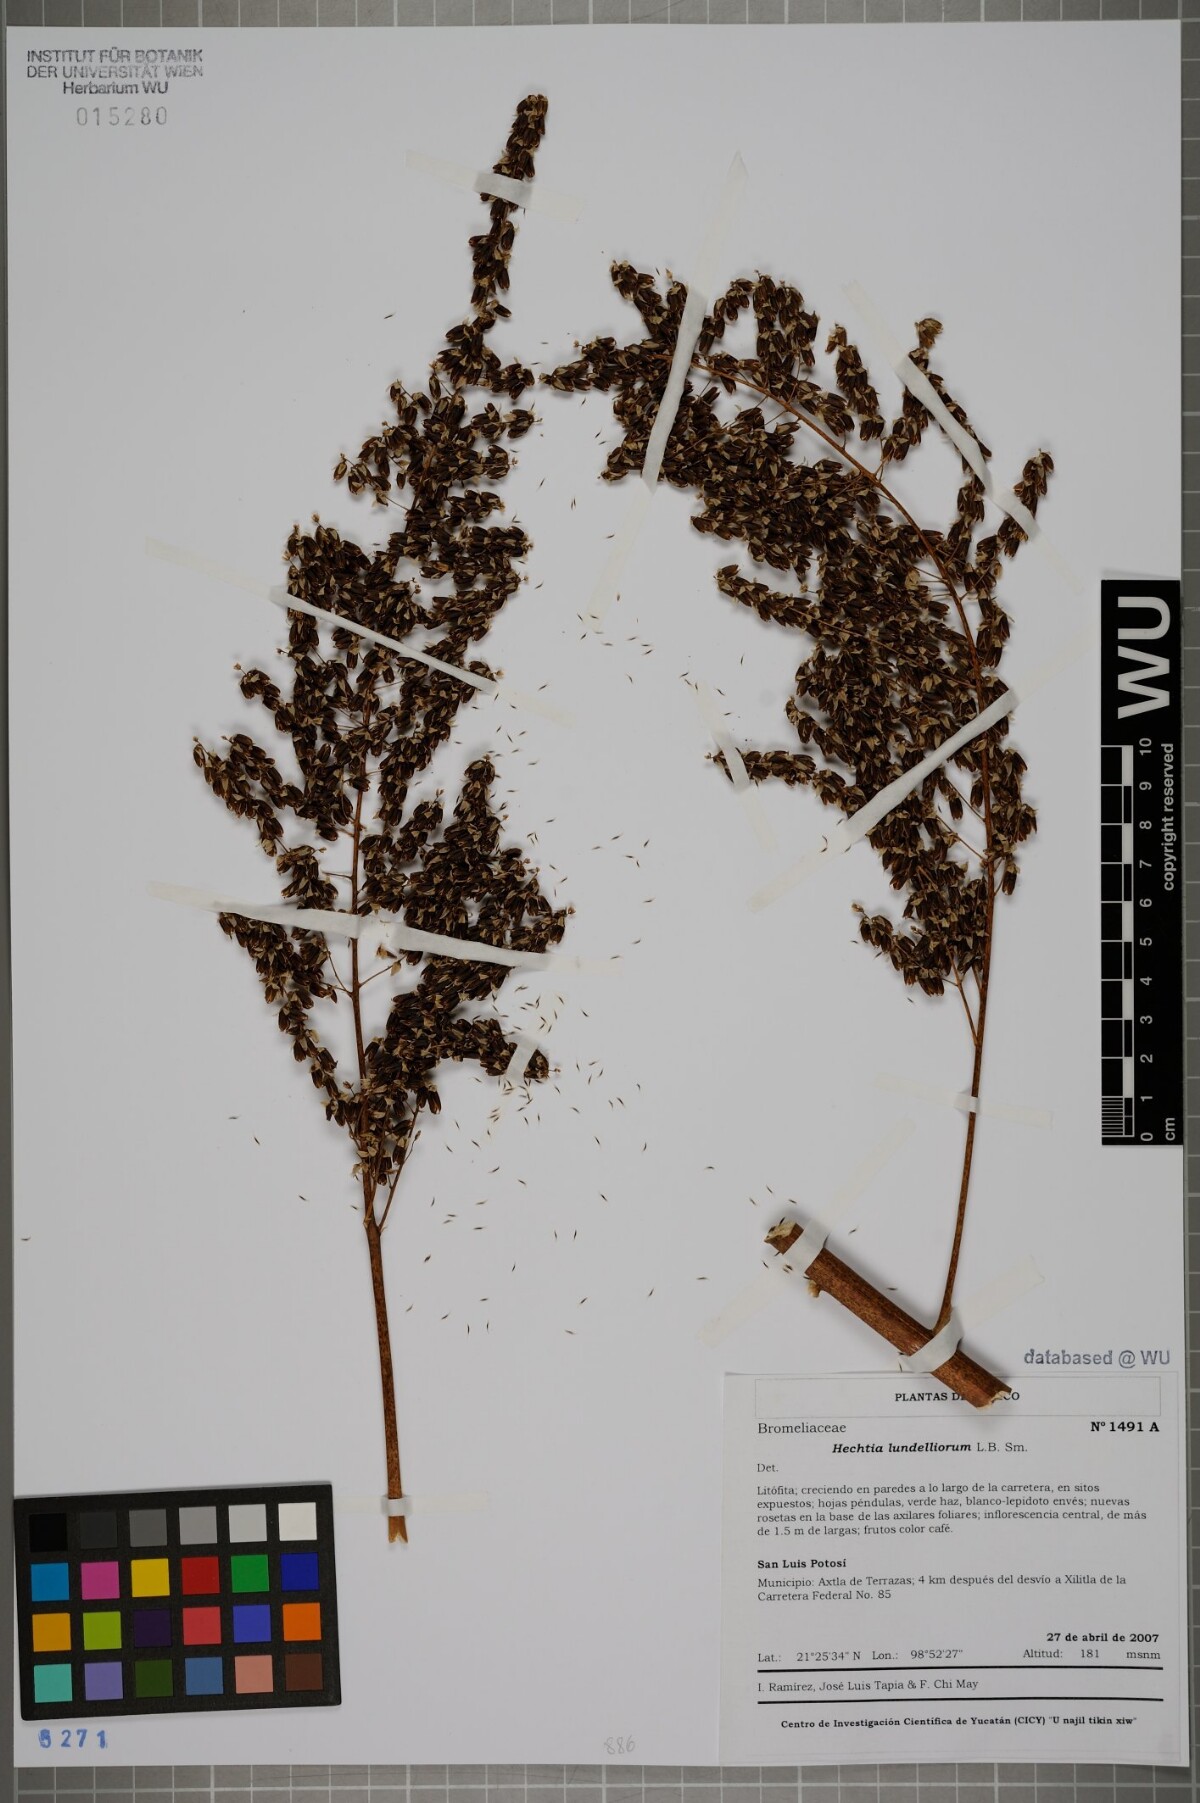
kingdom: Plantae
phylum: Tracheophyta
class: Liliopsida
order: Poales
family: Bromeliaceae
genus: Hechtia
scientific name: Hechtia lundelliorum
